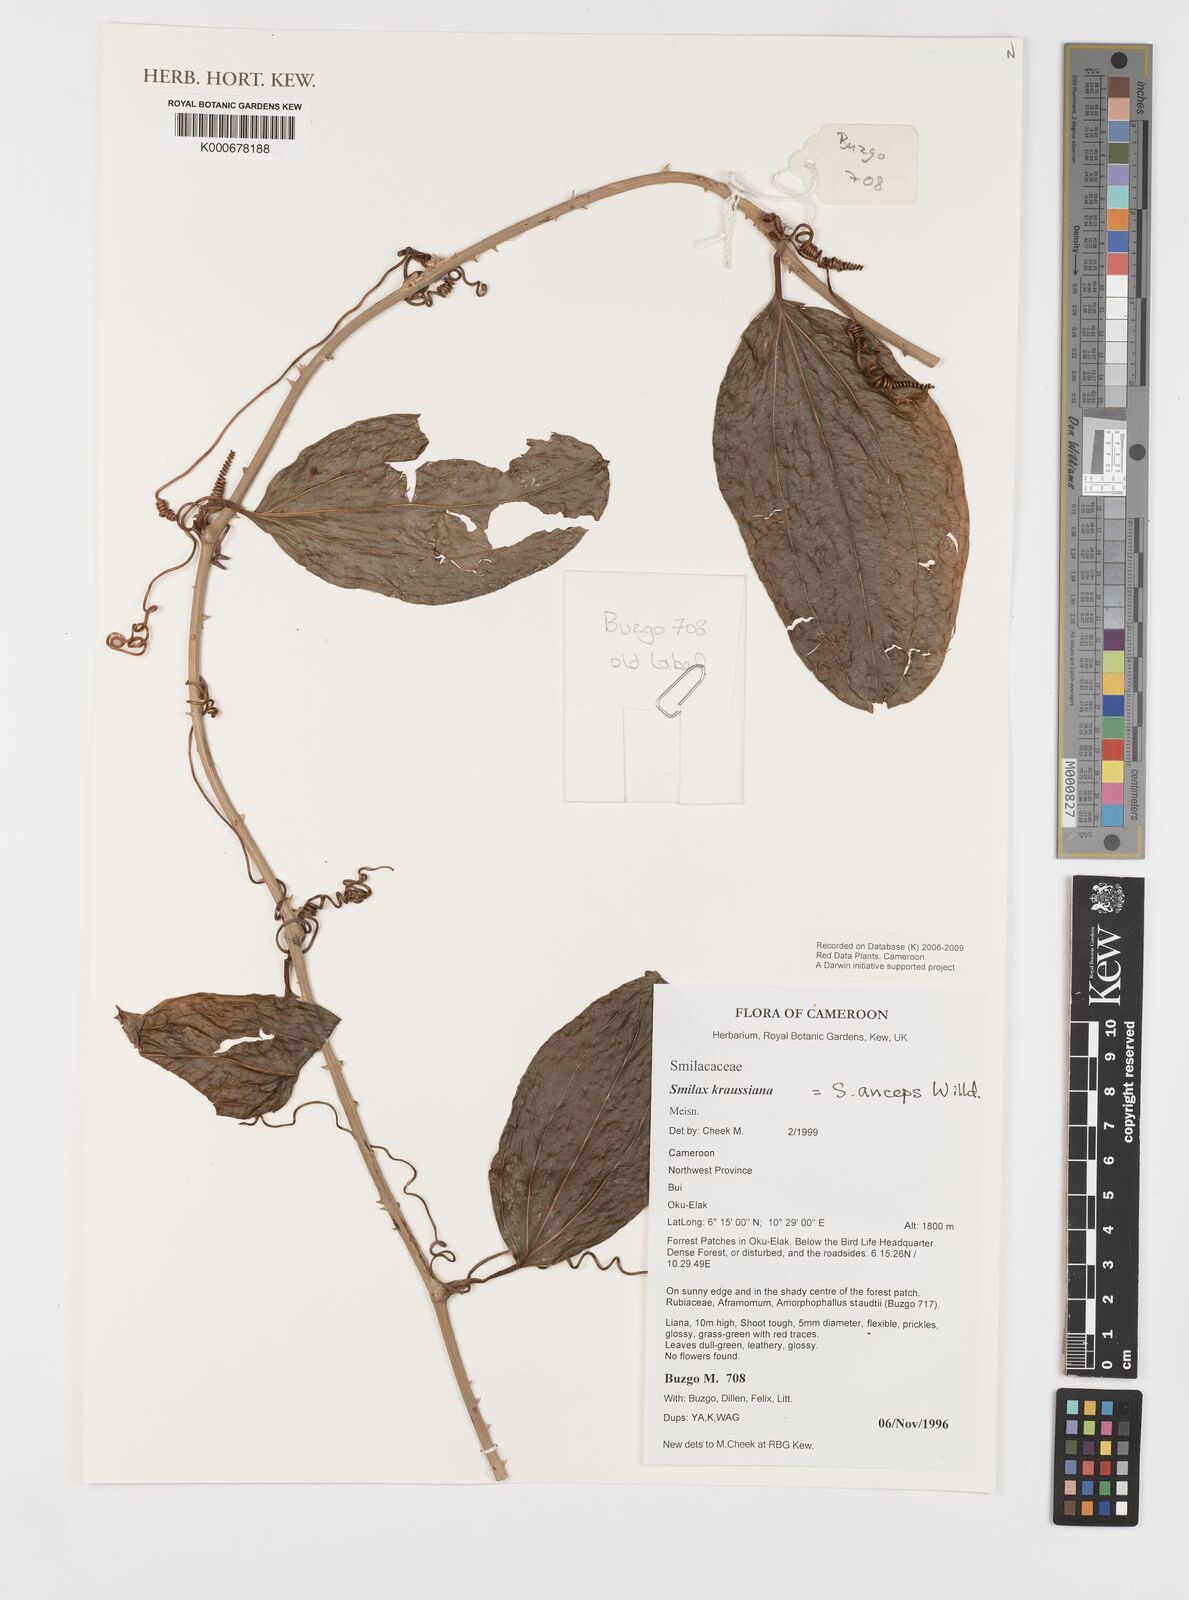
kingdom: Plantae
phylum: Tracheophyta
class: Liliopsida
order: Liliales
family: Smilacaceae
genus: Smilax
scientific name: Smilax anceps
